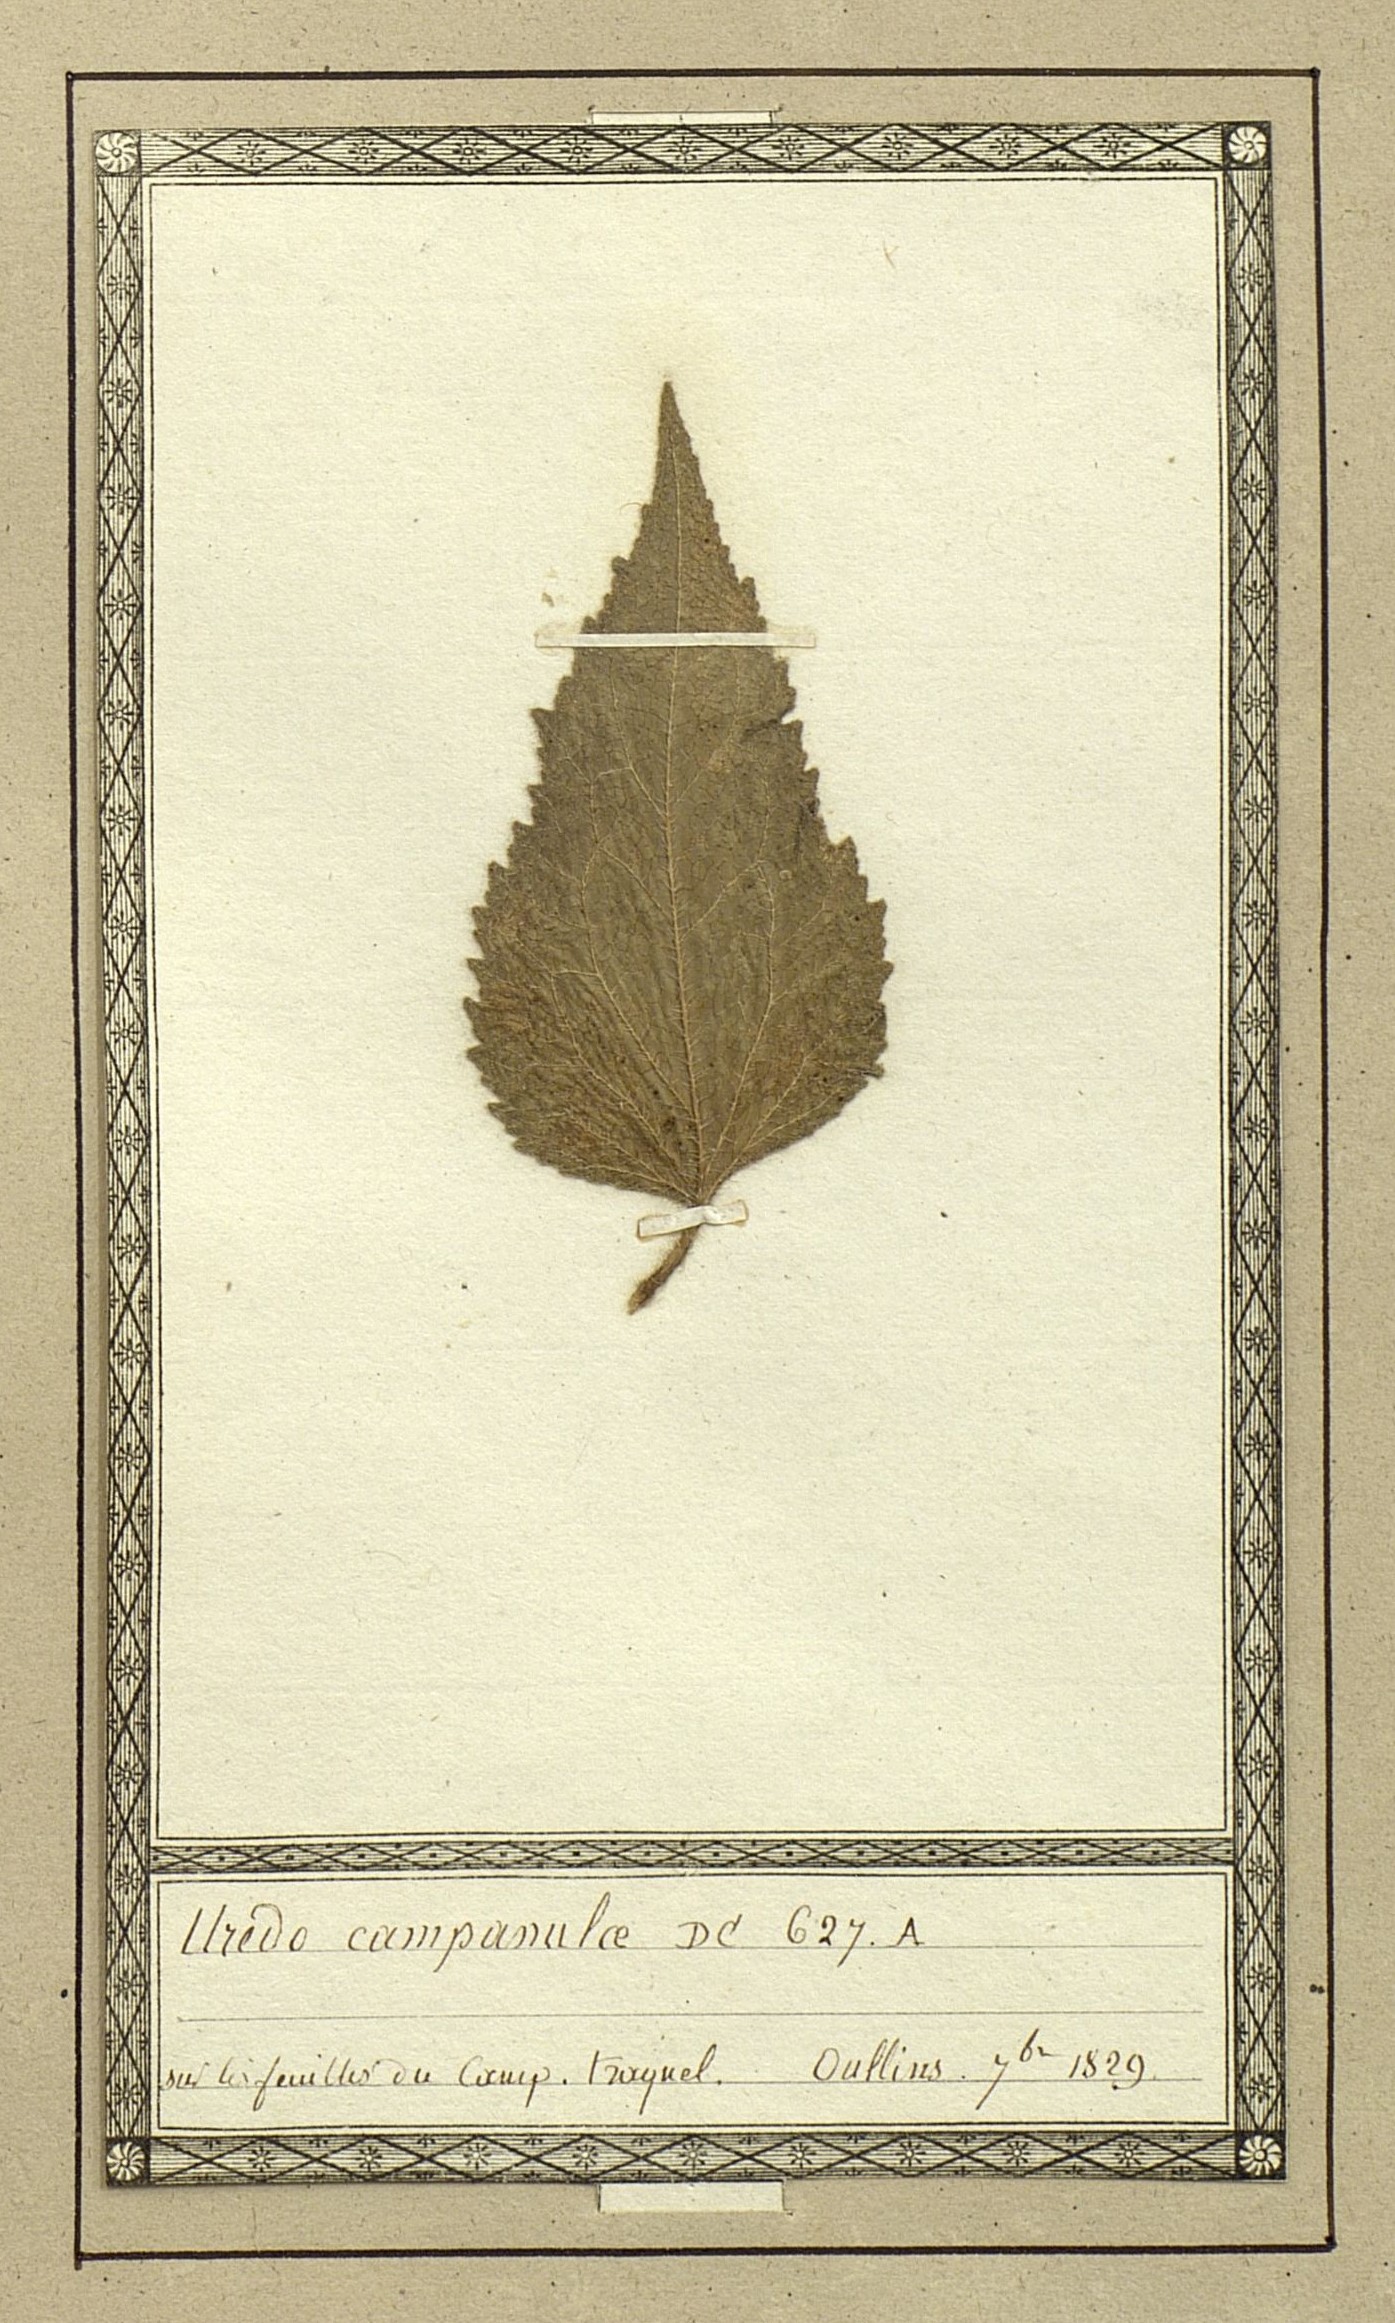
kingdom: Fungi
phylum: Basidiomycota
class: Pucciniomycetes
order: Pucciniales
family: Pucciniaceae
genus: Uredo
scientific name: Uredo campanulae
